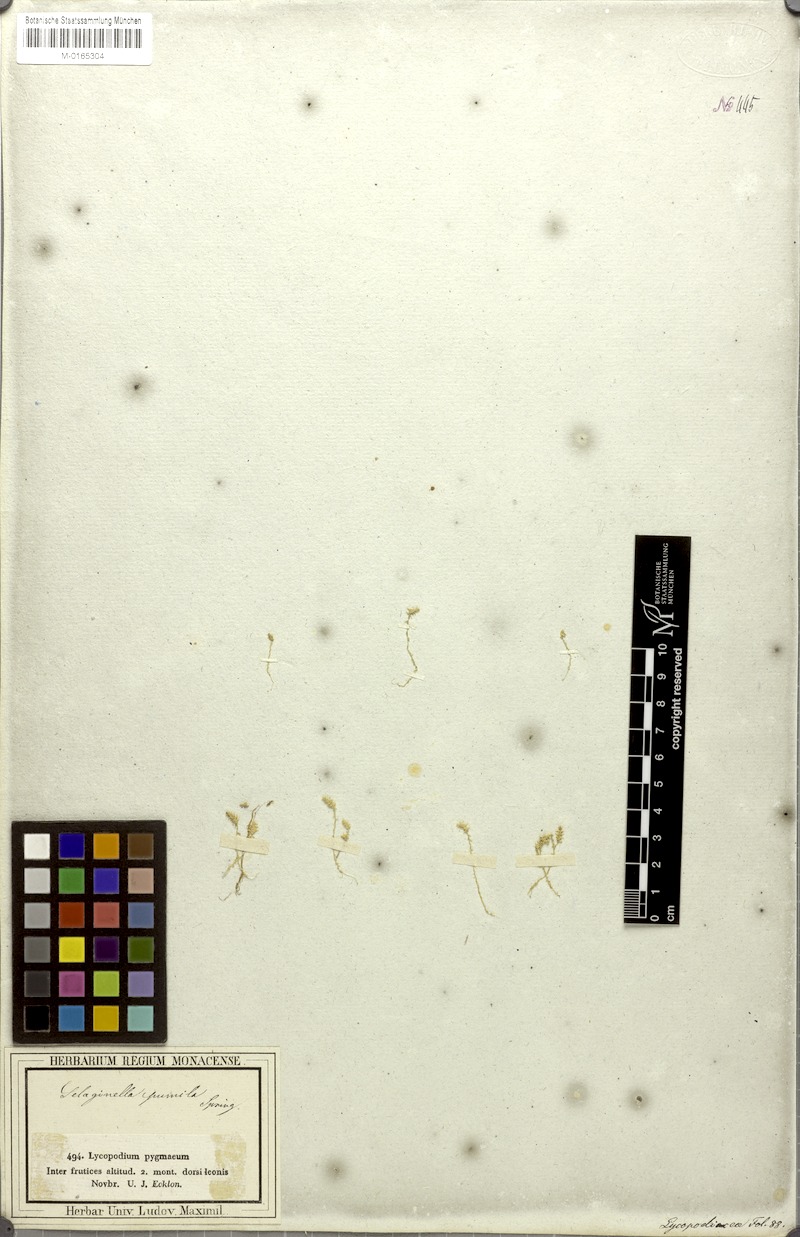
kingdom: Plantae
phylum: Tracheophyta
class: Lycopodiopsida
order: Selaginellales
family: Selaginellaceae
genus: Selaginella
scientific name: Selaginella pygmaea
